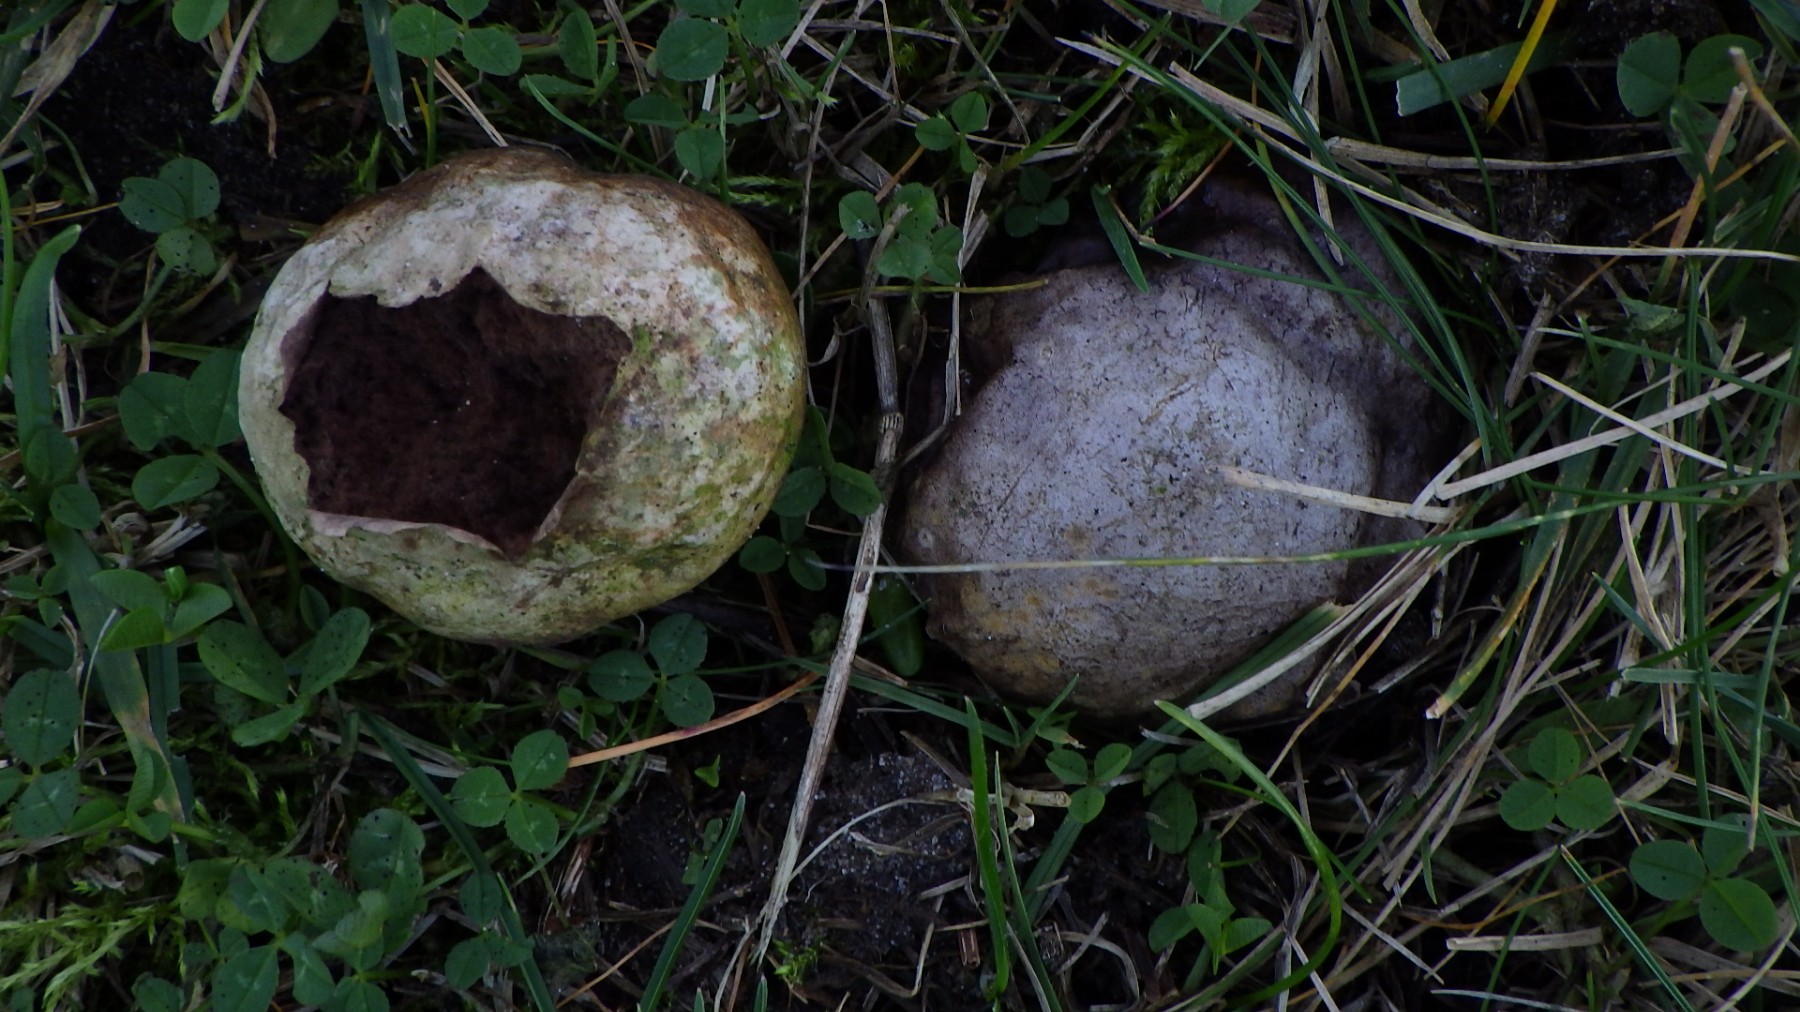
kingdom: Fungi
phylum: Basidiomycota
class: Agaricomycetes
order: Agaricales
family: Lycoperdaceae
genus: Bovista
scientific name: Bovista
